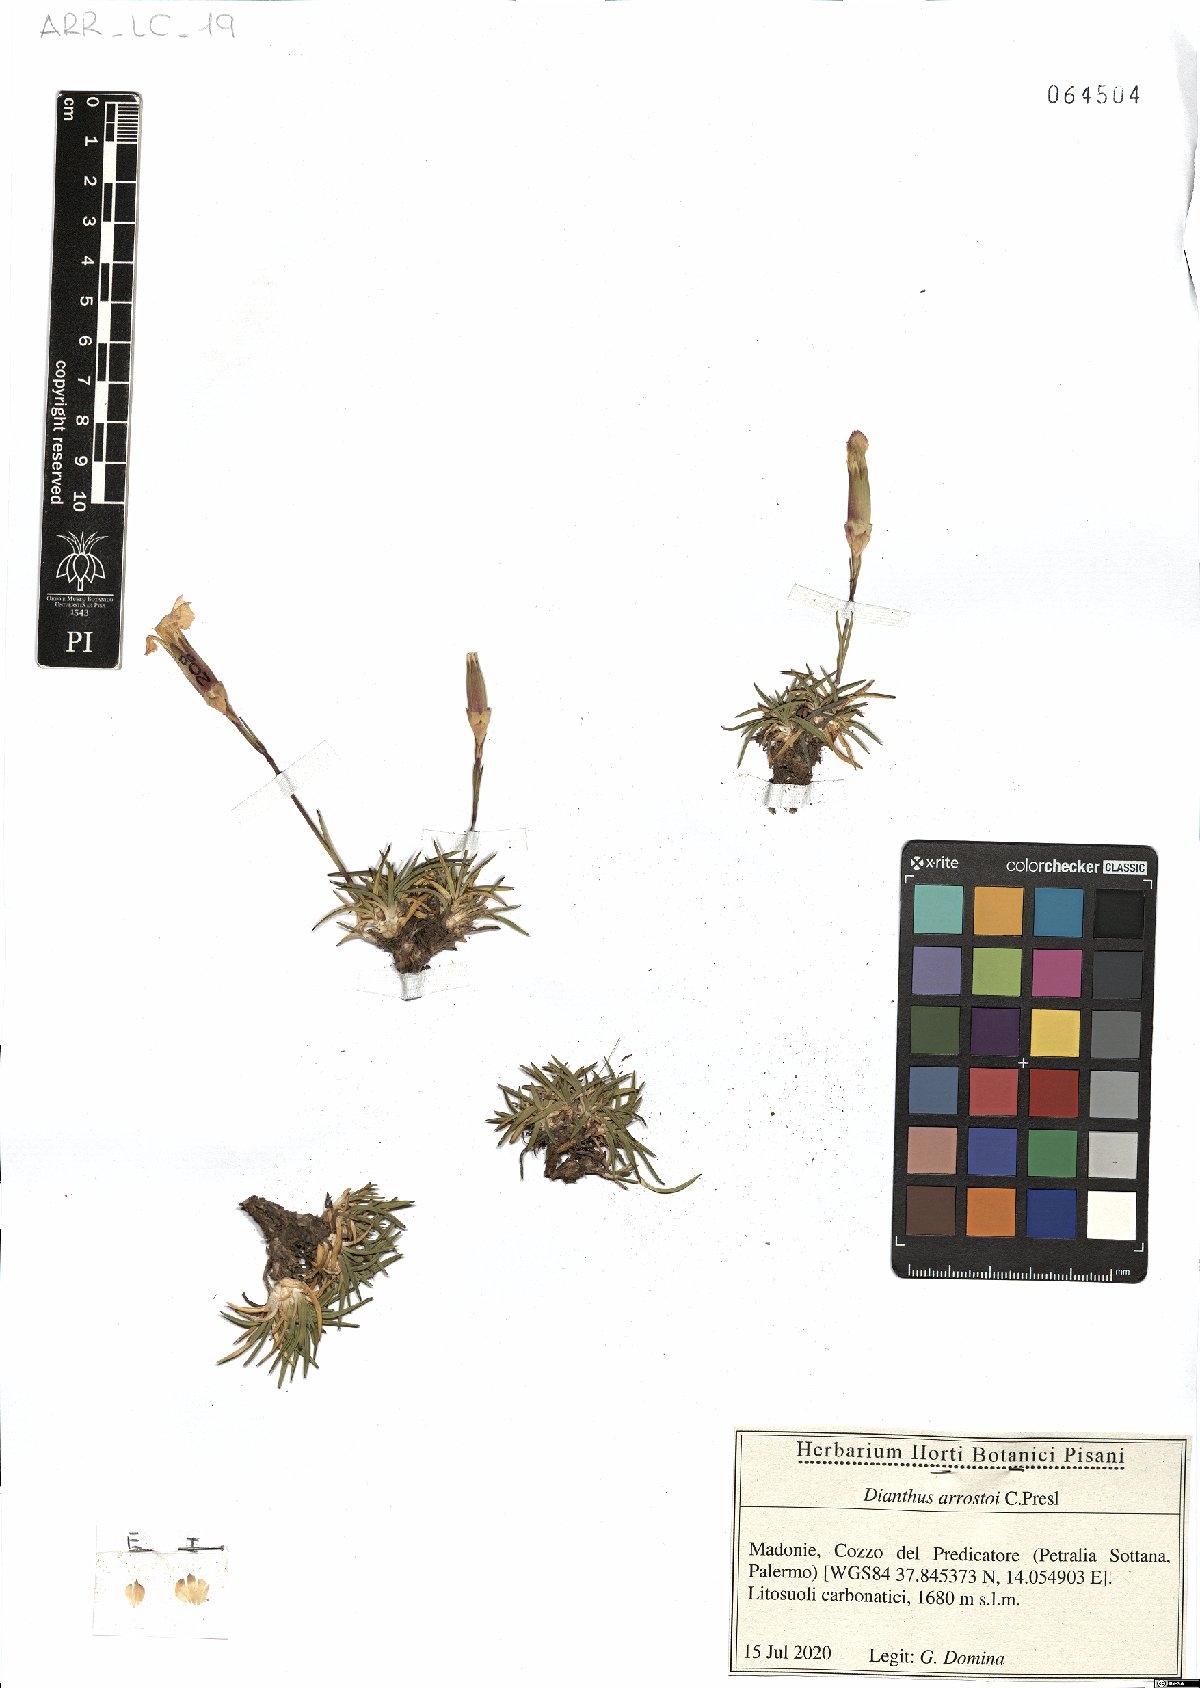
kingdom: Plantae
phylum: Tracheophyta
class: Magnoliopsida
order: Caryophyllales
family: Caryophyllaceae
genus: Dianthus
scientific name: Dianthus arrostoi
